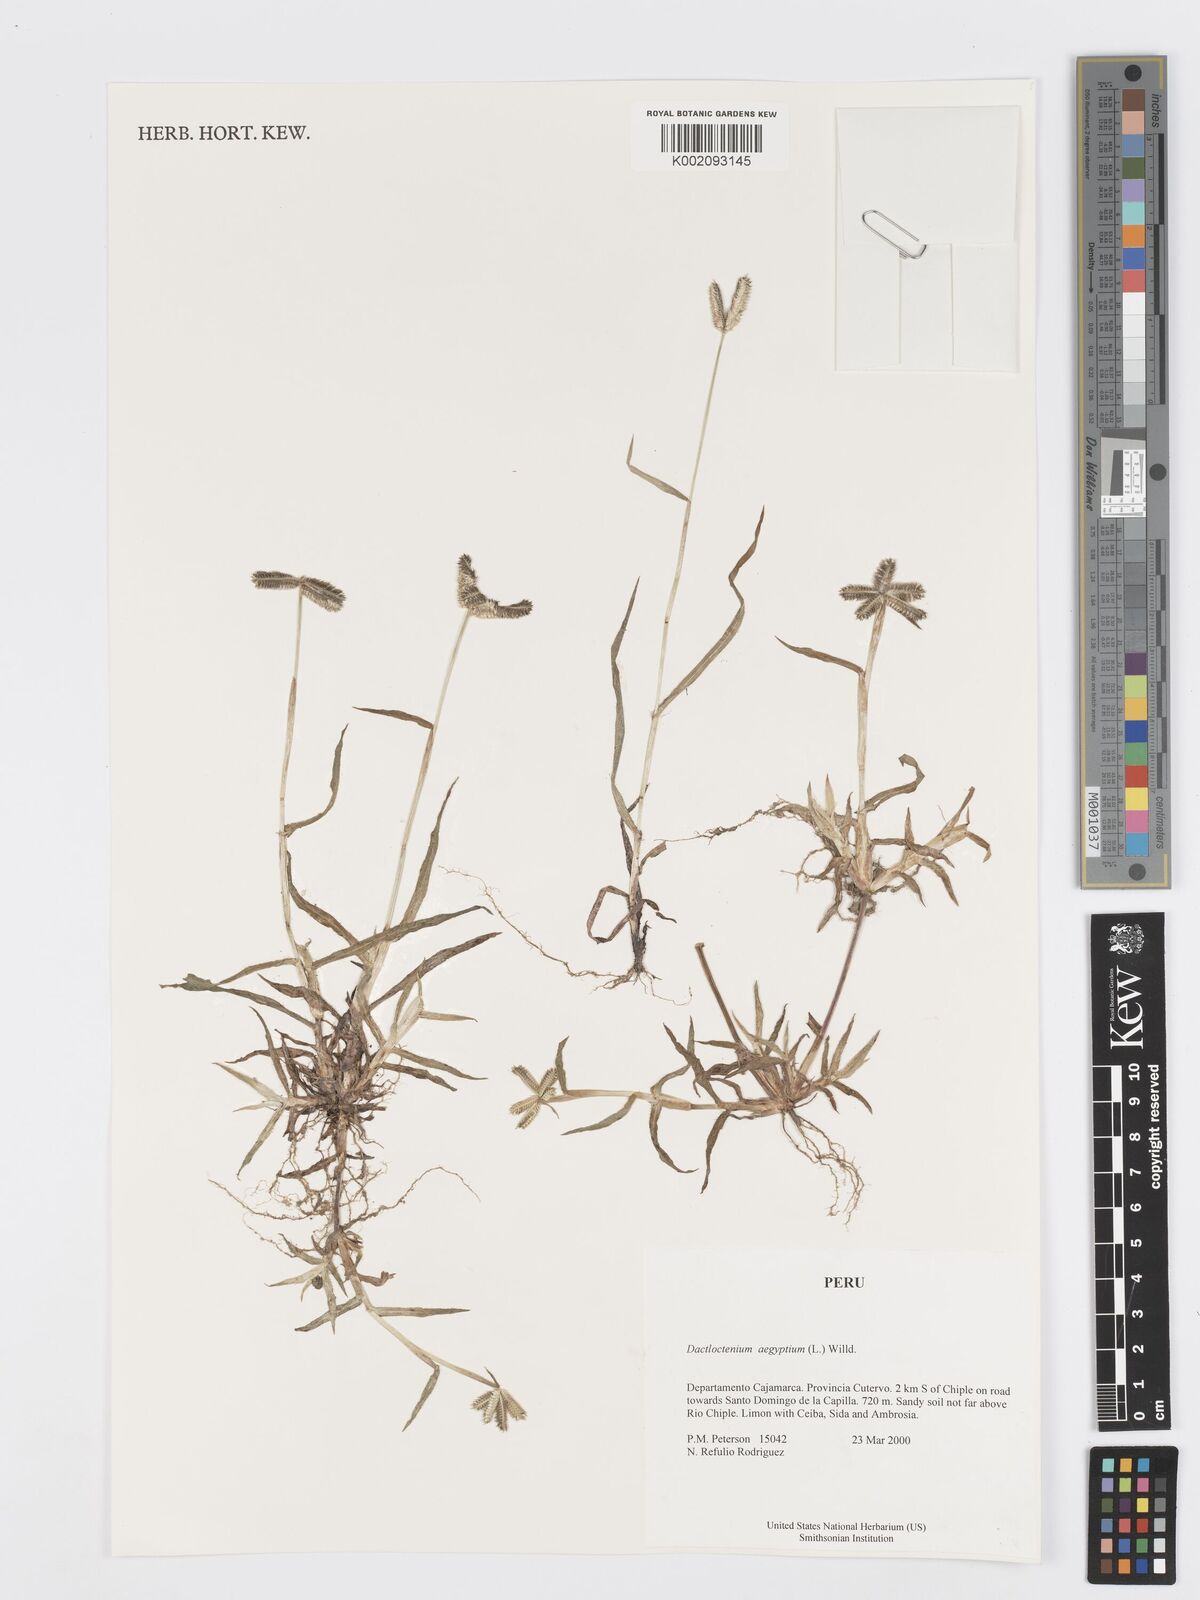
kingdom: Plantae
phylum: Tracheophyta
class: Liliopsida
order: Poales
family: Poaceae
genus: Dactyloctenium
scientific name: Dactyloctenium aegyptium
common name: Egyptian grass
